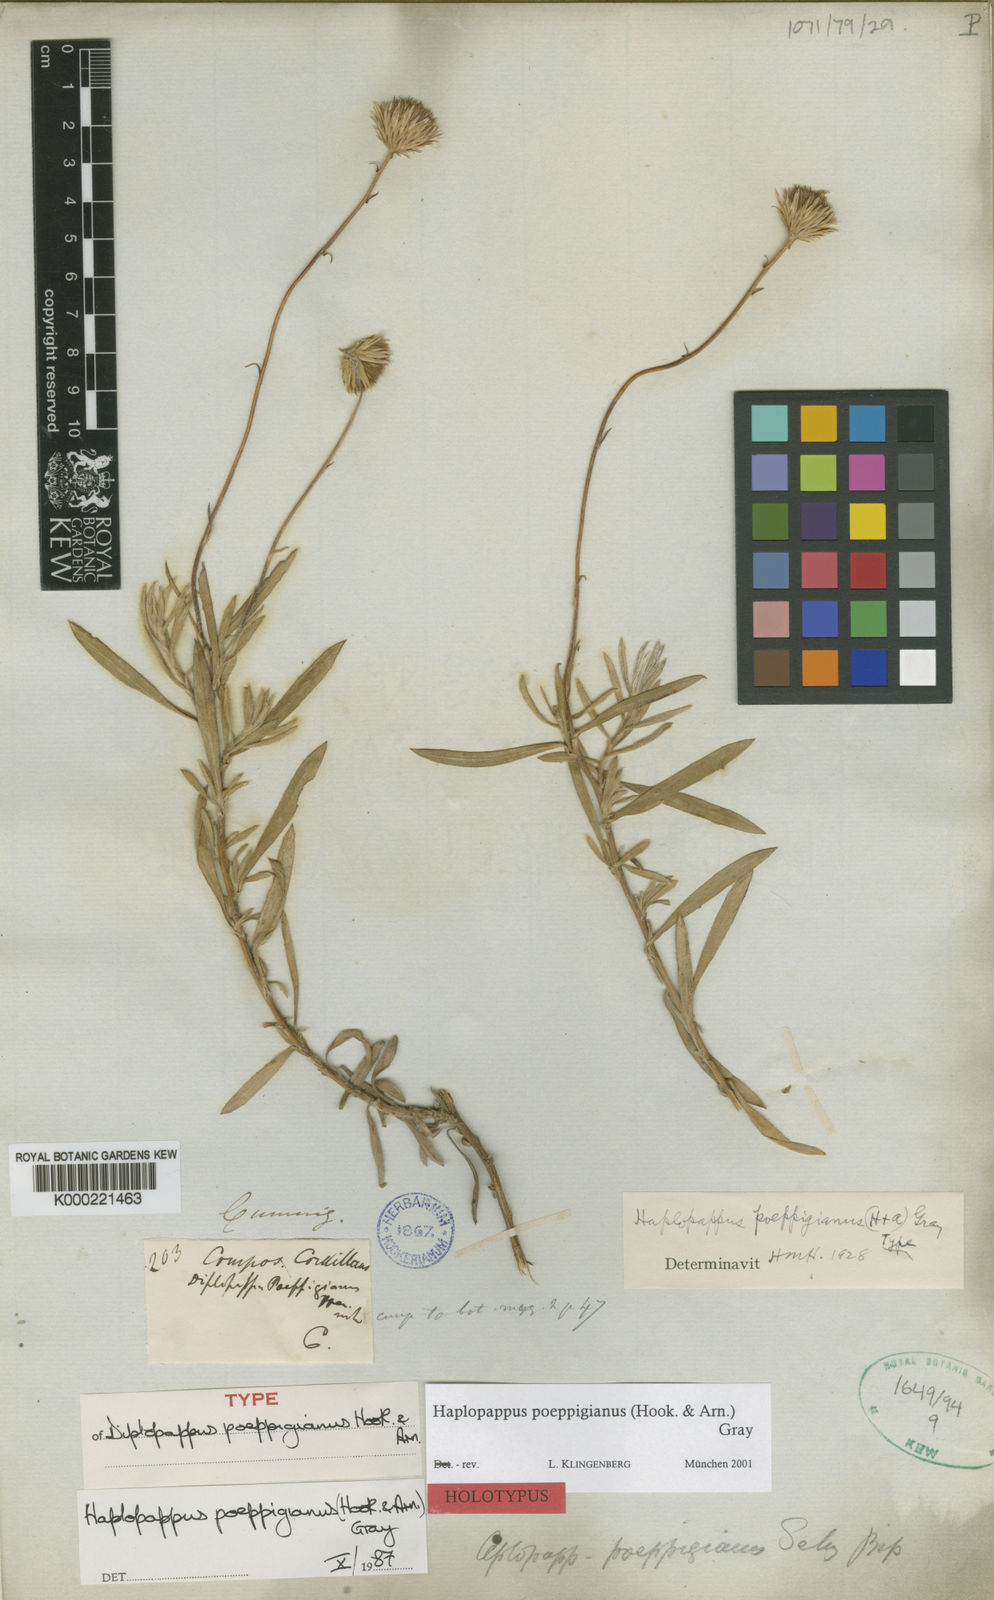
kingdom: Plantae
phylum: Tracheophyta
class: Magnoliopsida
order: Asterales
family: Asteraceae
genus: Haplopappus
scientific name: Haplopappus poeppigianus
